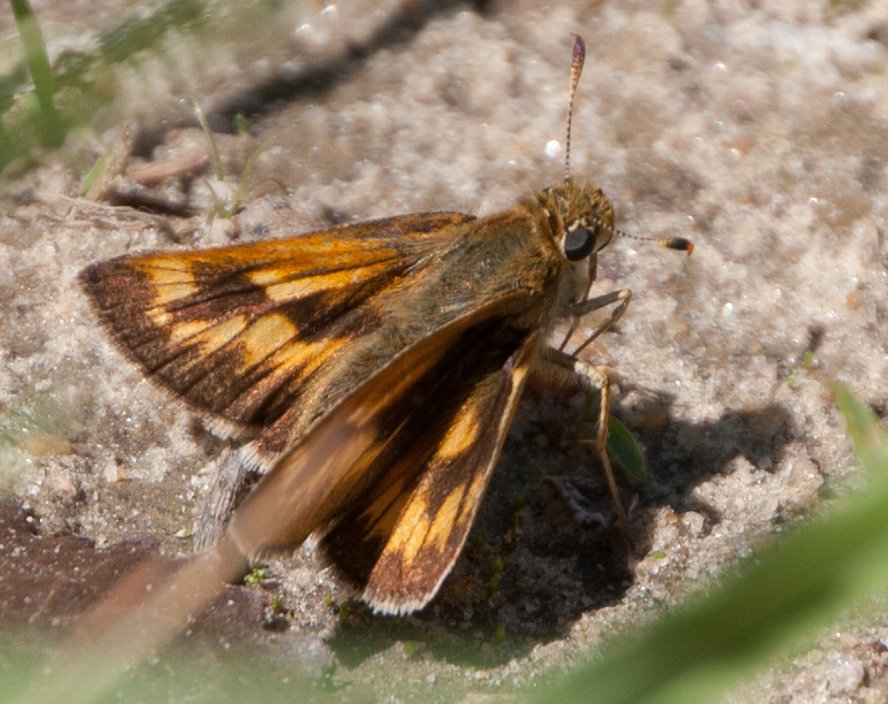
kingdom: Animalia
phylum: Arthropoda
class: Insecta
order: Lepidoptera
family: Hesperiidae
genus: Polites
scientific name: Polites
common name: Long Dash Skipper
